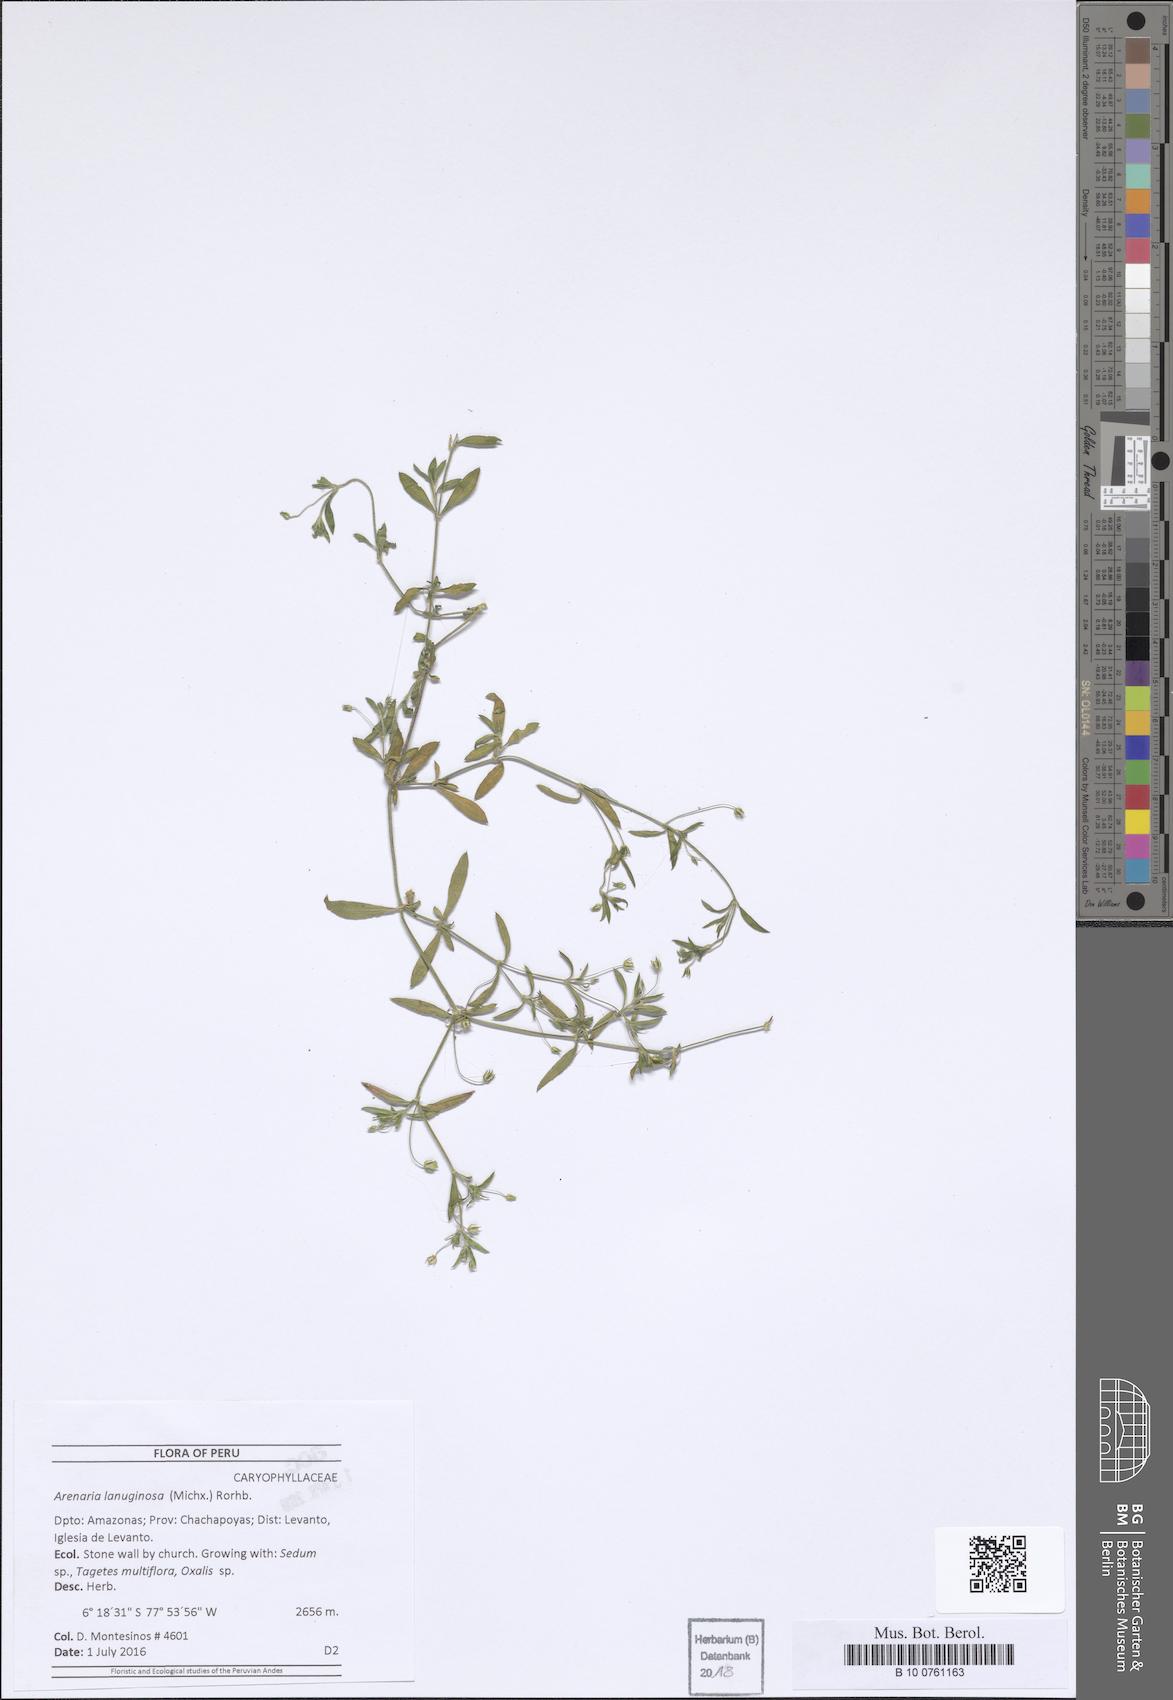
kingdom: Plantae
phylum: Tracheophyta
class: Magnoliopsida
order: Caryophyllales
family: Caryophyllaceae
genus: Arenaria
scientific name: Arenaria lanuginosa
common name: Spread sandwort
